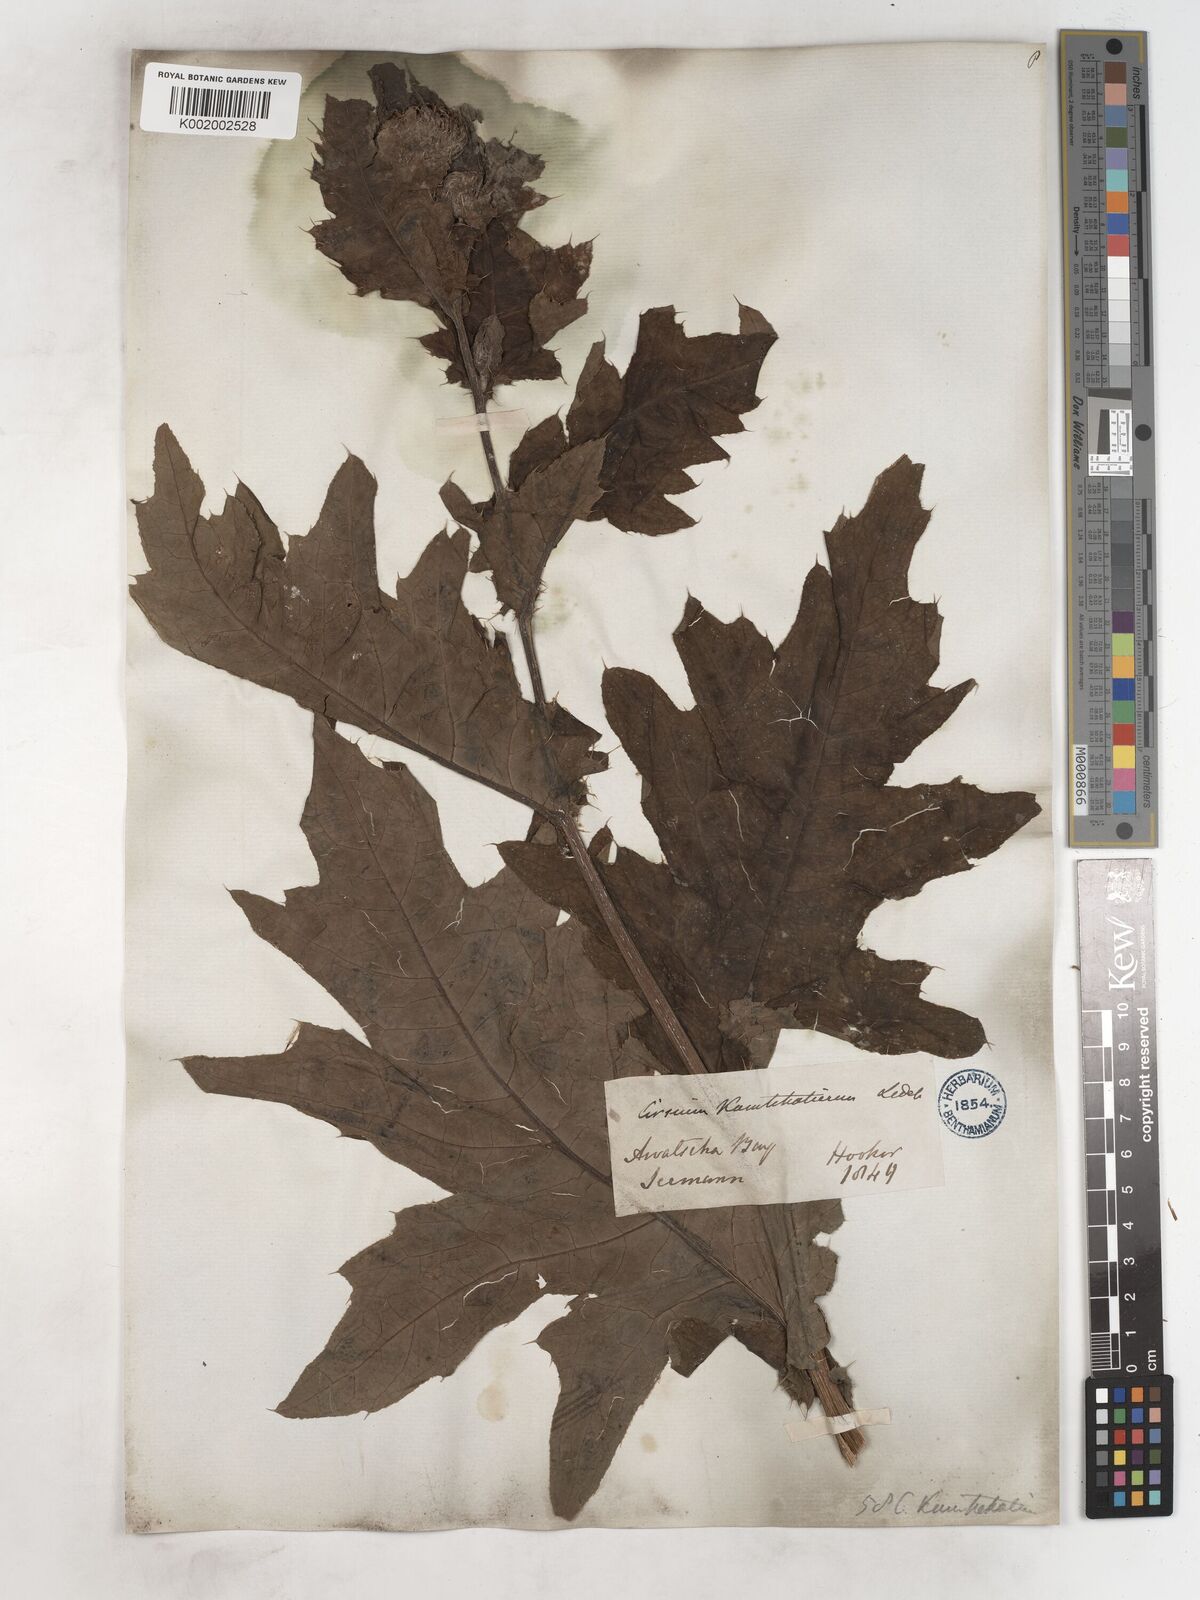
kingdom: Plantae
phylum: Tracheophyta
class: Magnoliopsida
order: Asterales
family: Asteraceae
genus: Cirsium
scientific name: Cirsium kamtschaticum
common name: Kamchatka thistle
